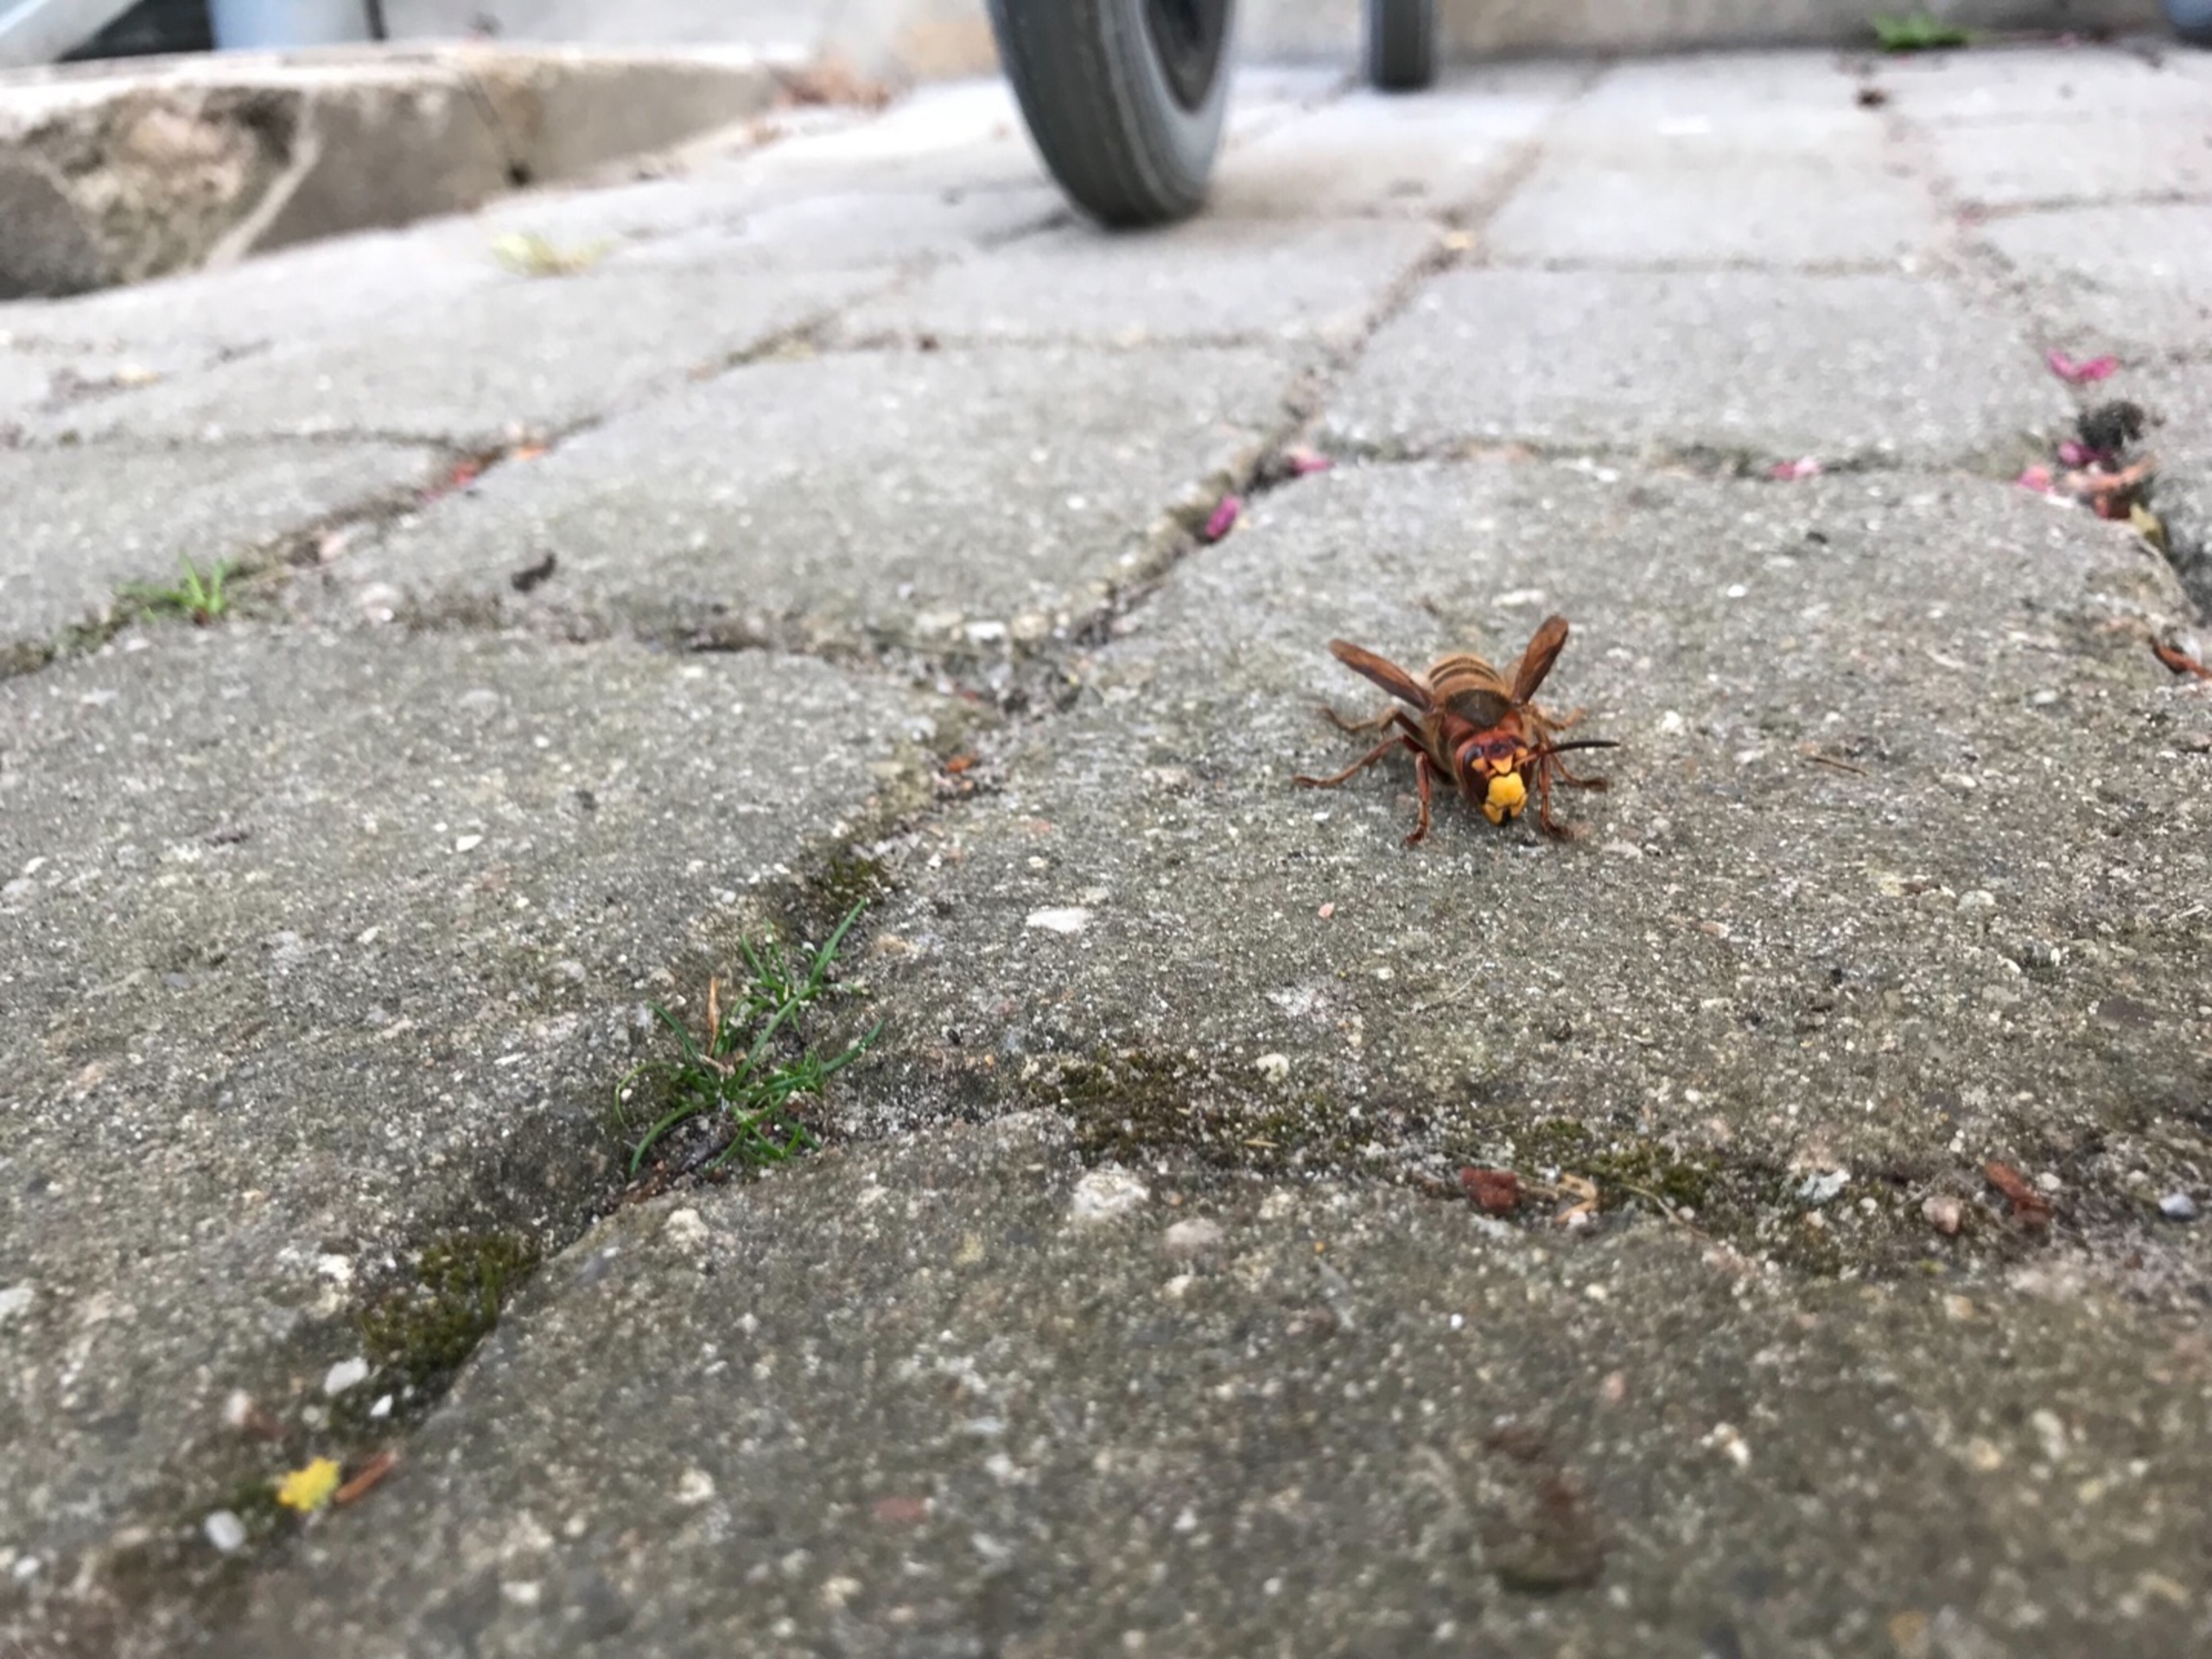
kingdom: Animalia
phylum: Arthropoda
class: Insecta
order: Hymenoptera
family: Vespidae
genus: Vespa
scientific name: Vespa crabro
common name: Stor gedehams
